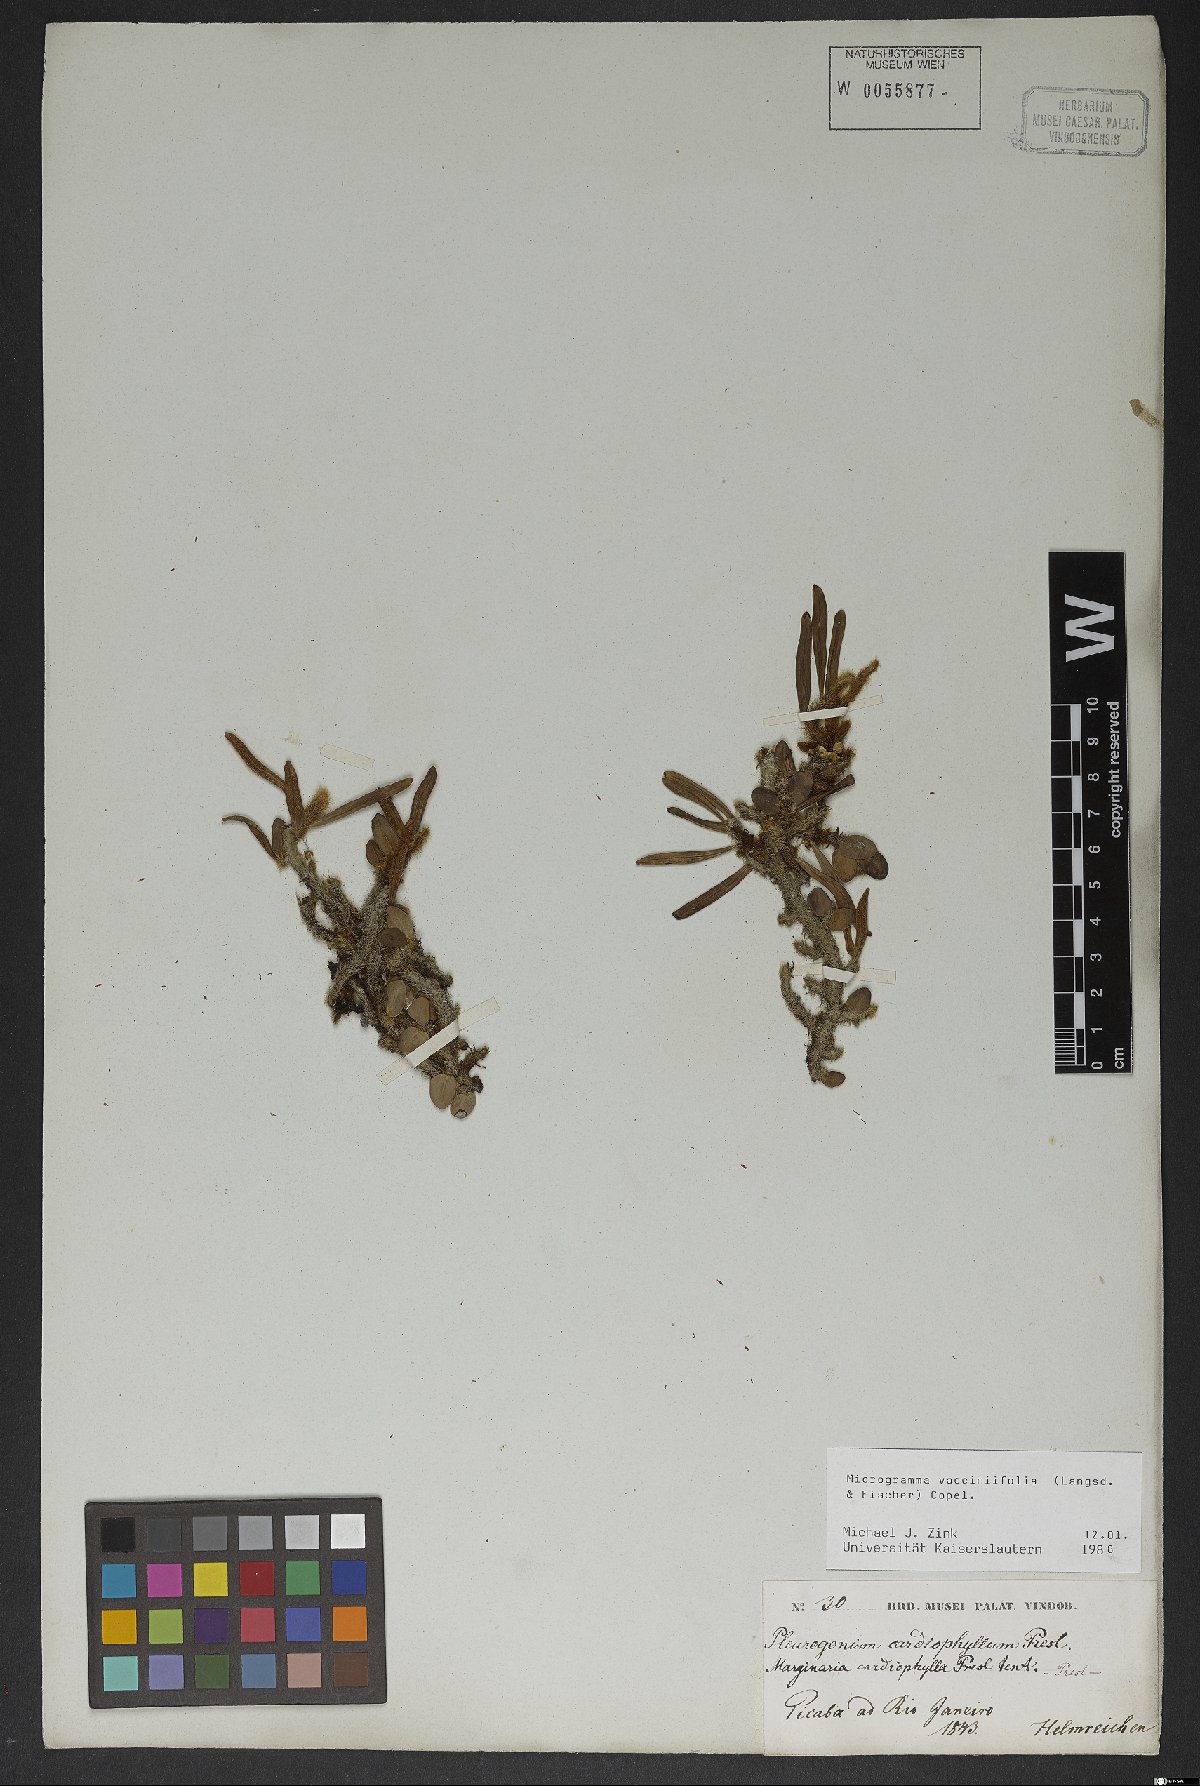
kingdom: Plantae
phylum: Tracheophyta
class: Polypodiopsida
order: Polypodiales
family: Polypodiaceae
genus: Microgramma
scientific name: Microgramma vaccinifolia
